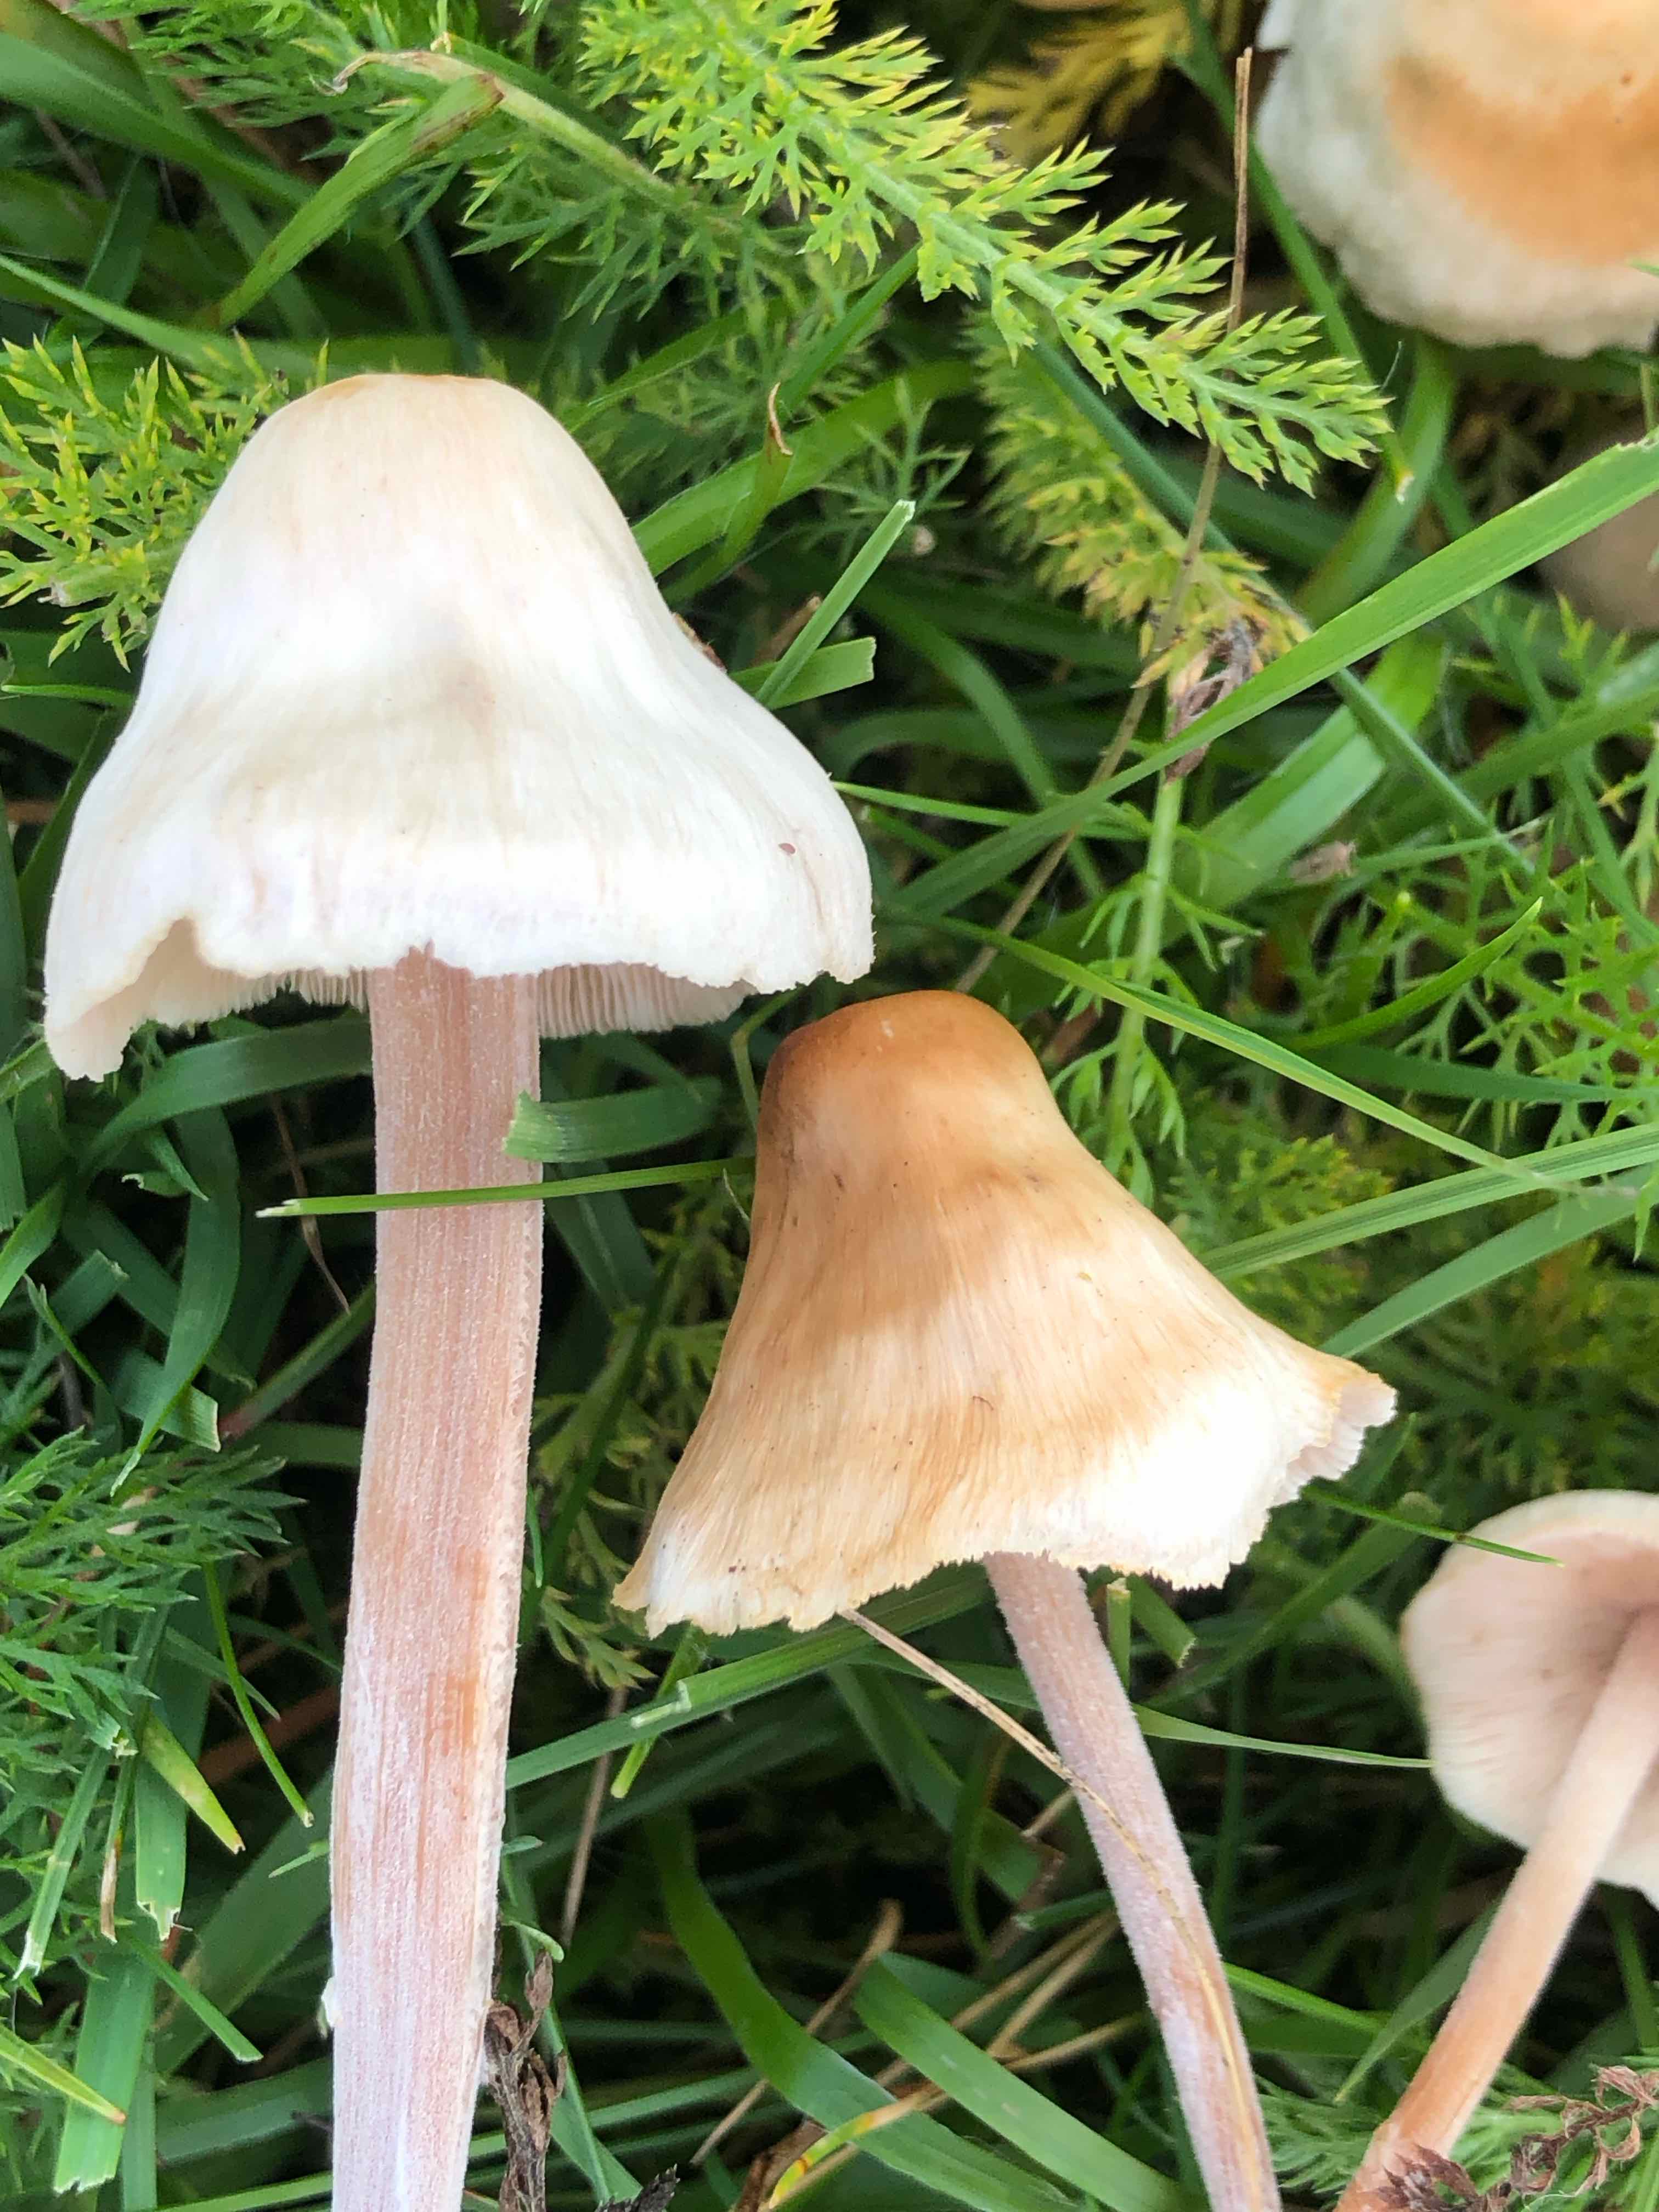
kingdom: Fungi
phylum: Basidiomycota
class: Agaricomycetes
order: Agaricales
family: Omphalotaceae
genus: Collybiopsis
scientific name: Collybiopsis confluens
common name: knippe-fladhat
